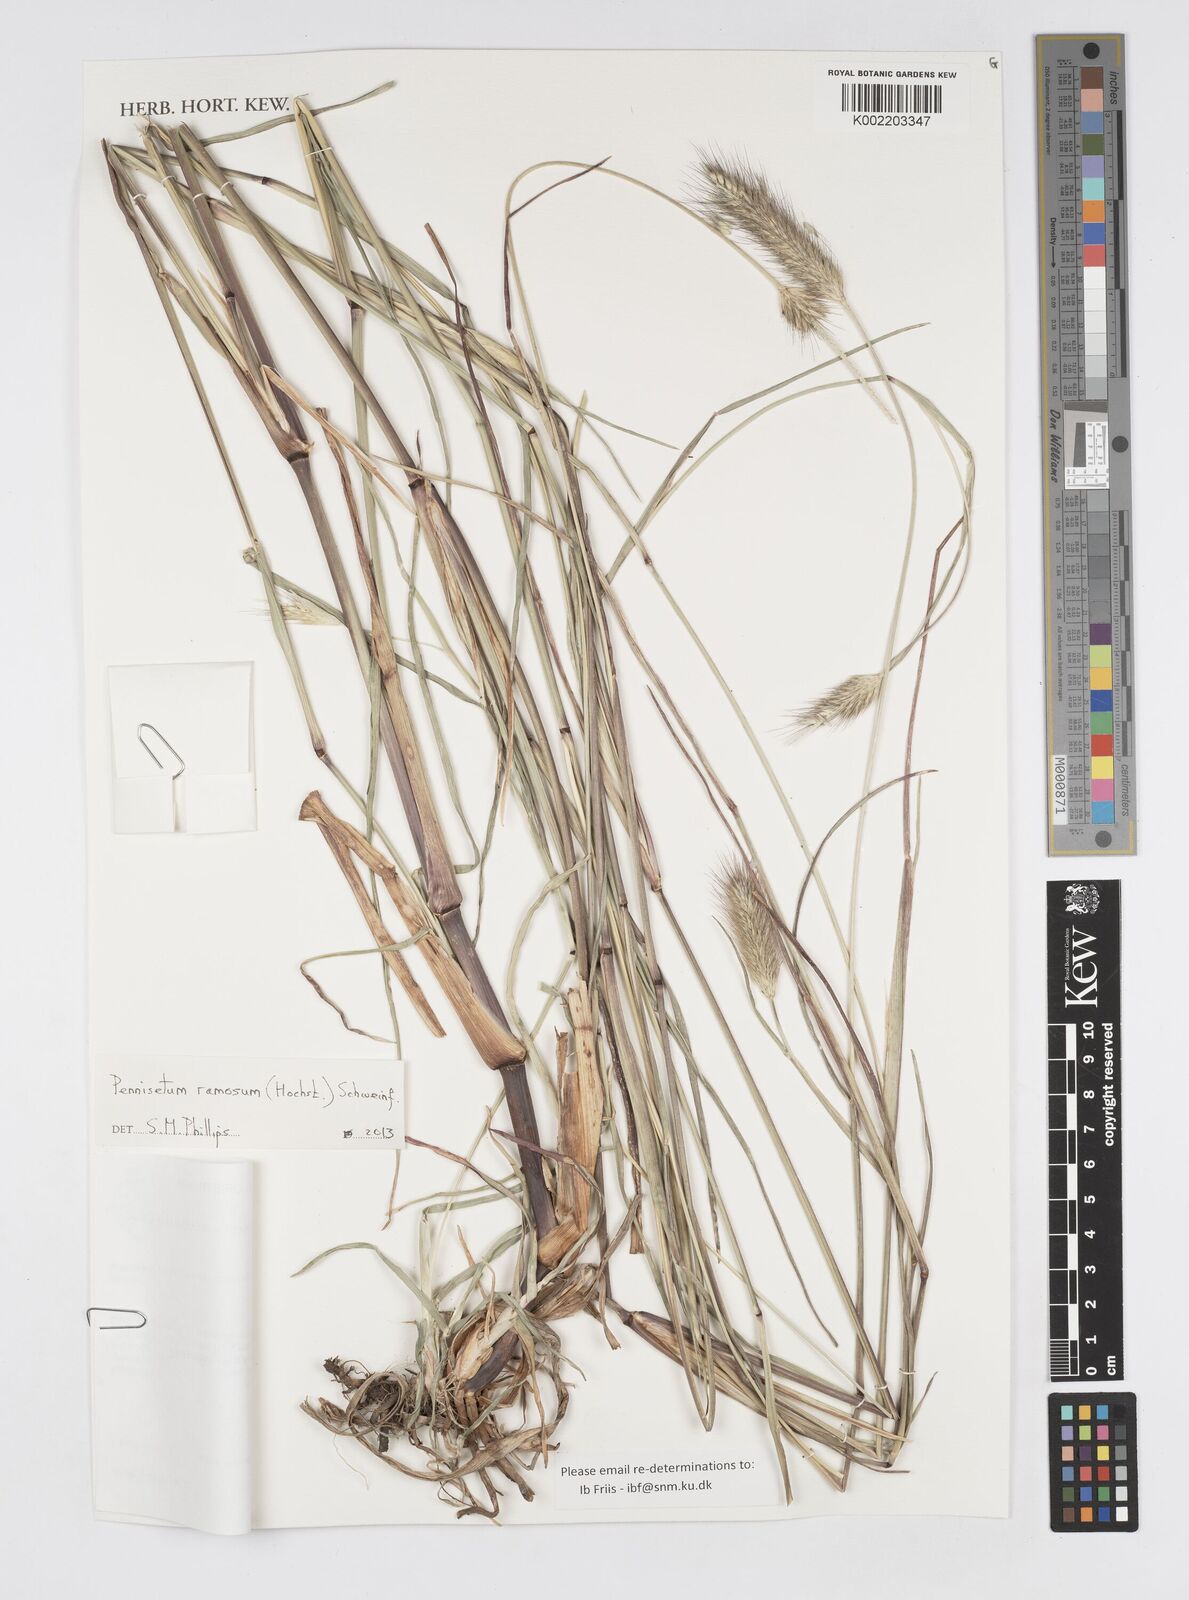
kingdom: Plantae
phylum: Tracheophyta
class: Liliopsida
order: Poales
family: Poaceae
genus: Cenchrus
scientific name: Cenchrus ramosus
